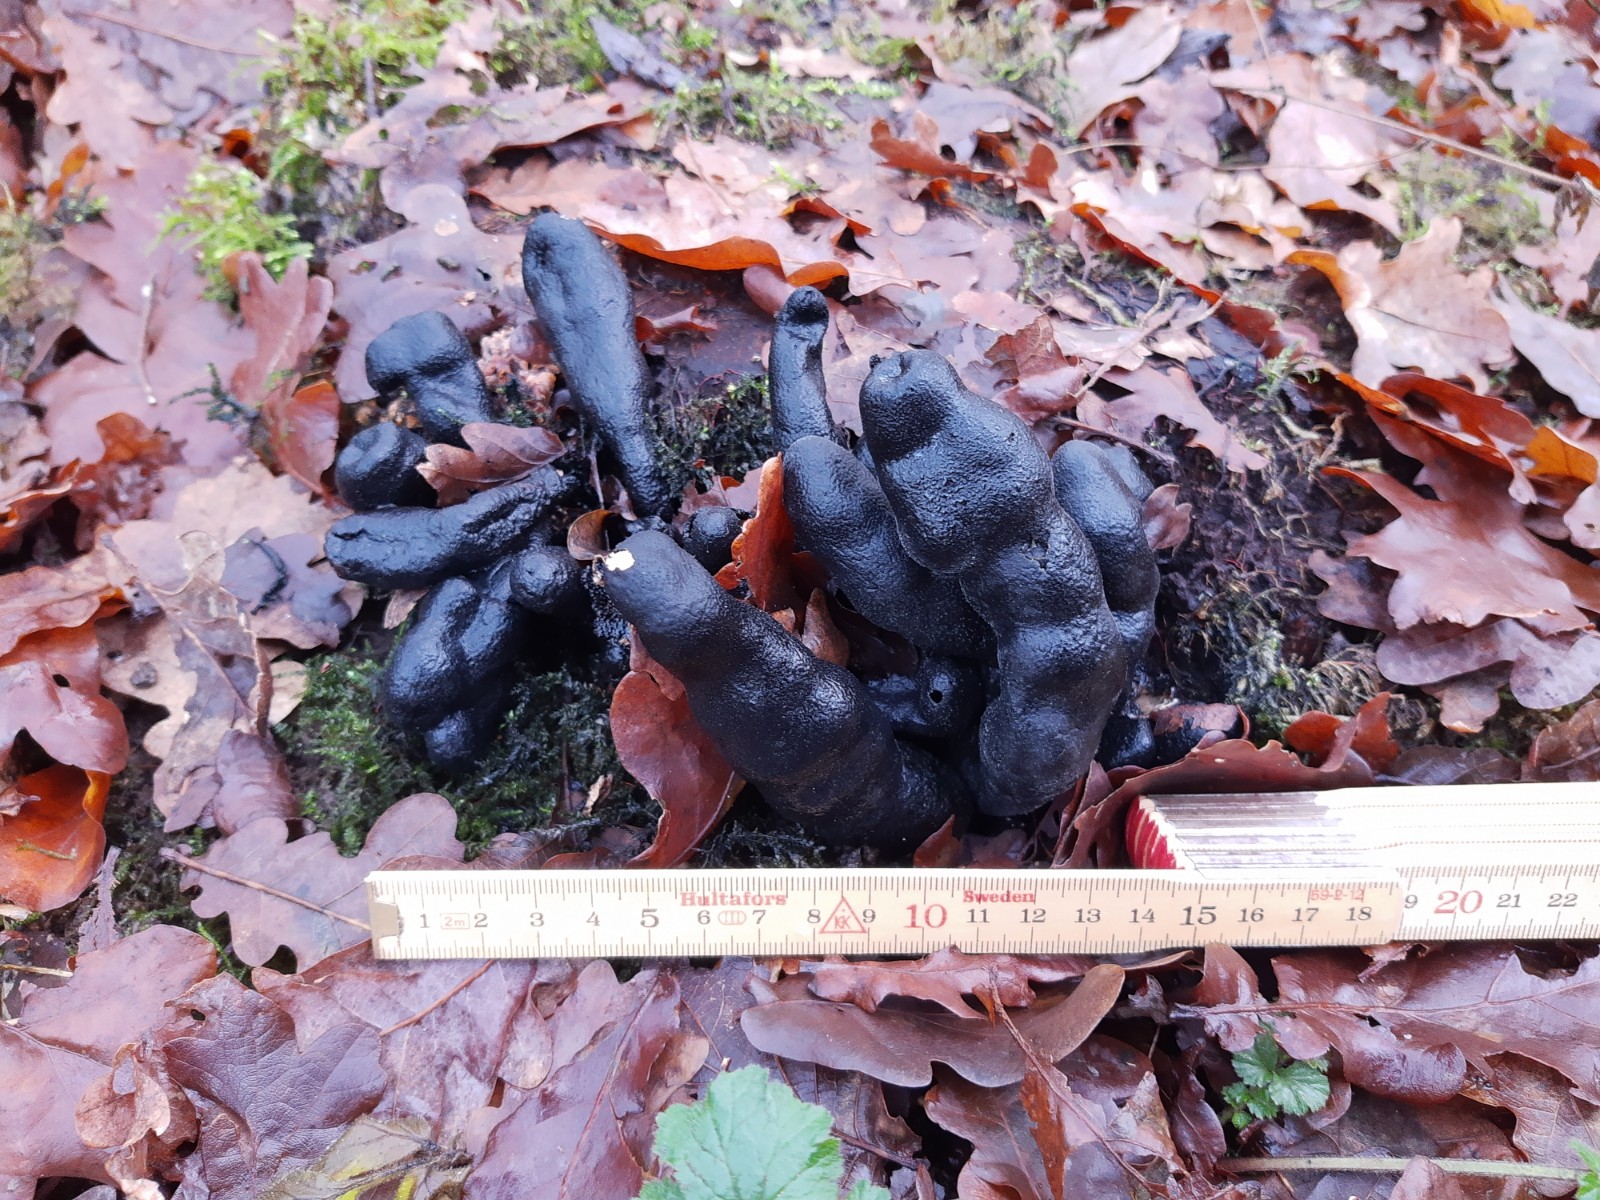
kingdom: Fungi
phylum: Ascomycota
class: Sordariomycetes
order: Xylariales
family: Xylariaceae
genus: Xylaria
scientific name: Xylaria polymorpha
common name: kølle-stødsvamp
